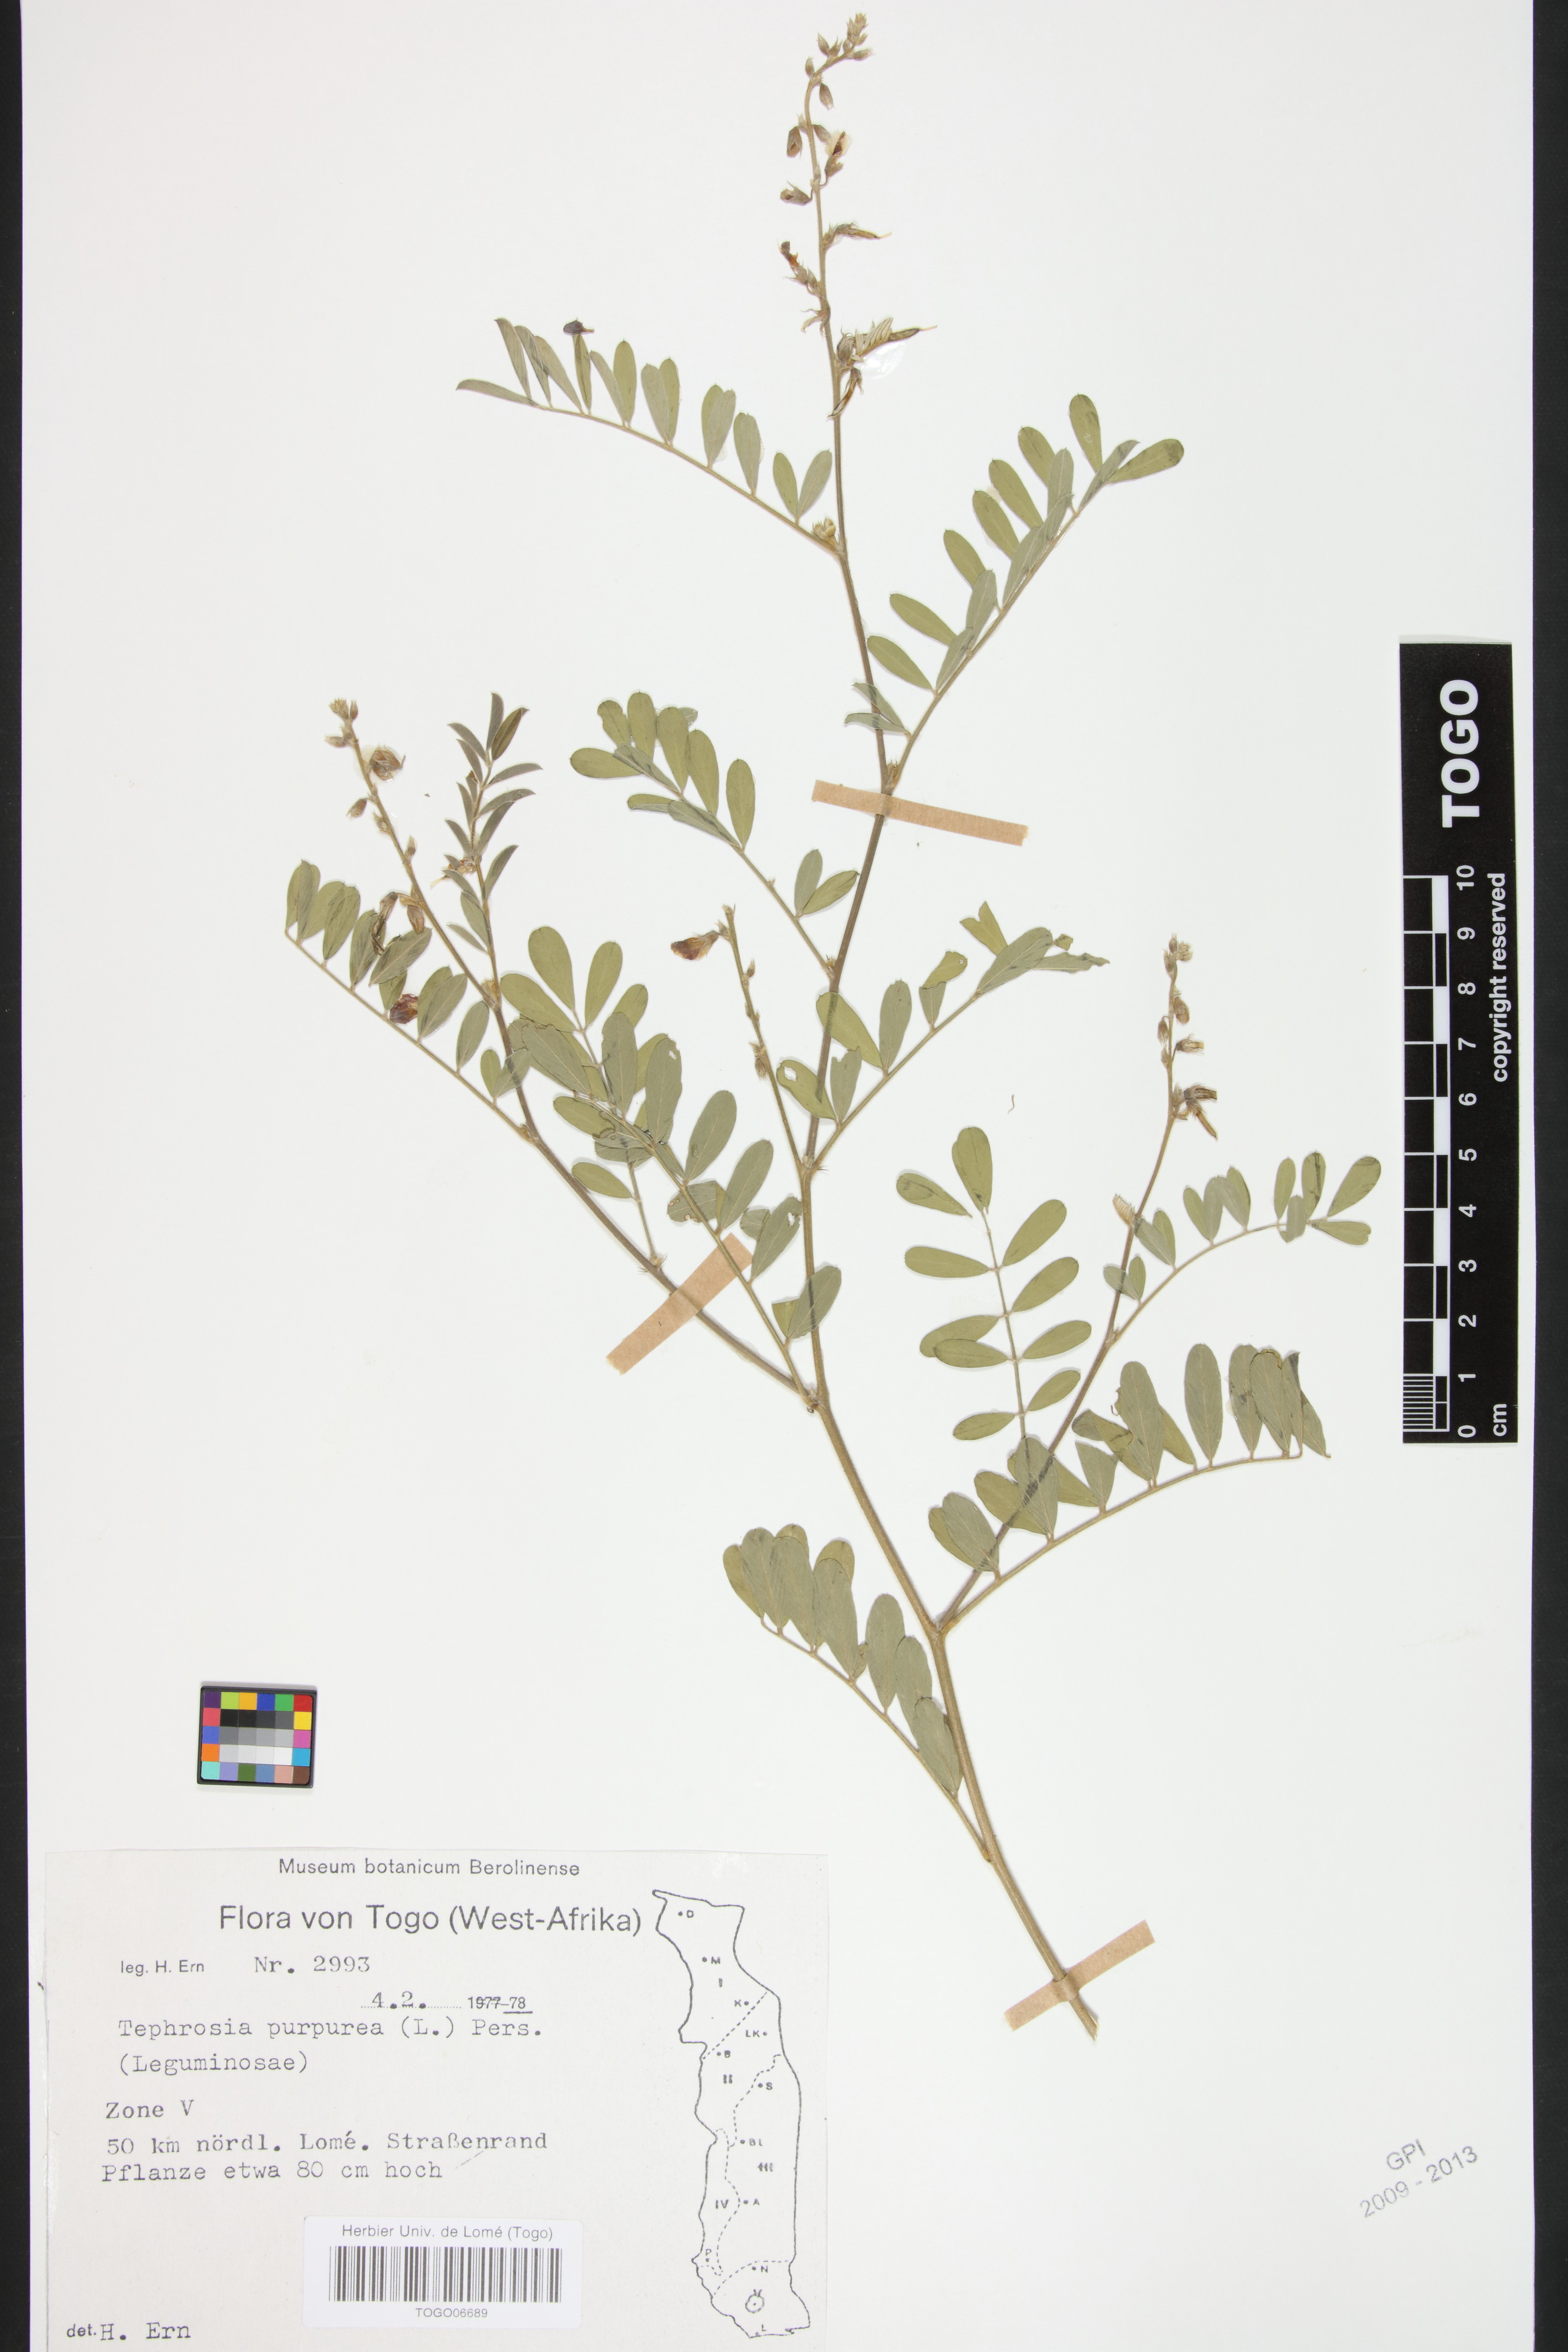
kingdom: Plantae
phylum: Tracheophyta
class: Magnoliopsida
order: Fabales
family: Fabaceae
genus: Tephrosia
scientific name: Tephrosia purpurea
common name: Fishpoison
